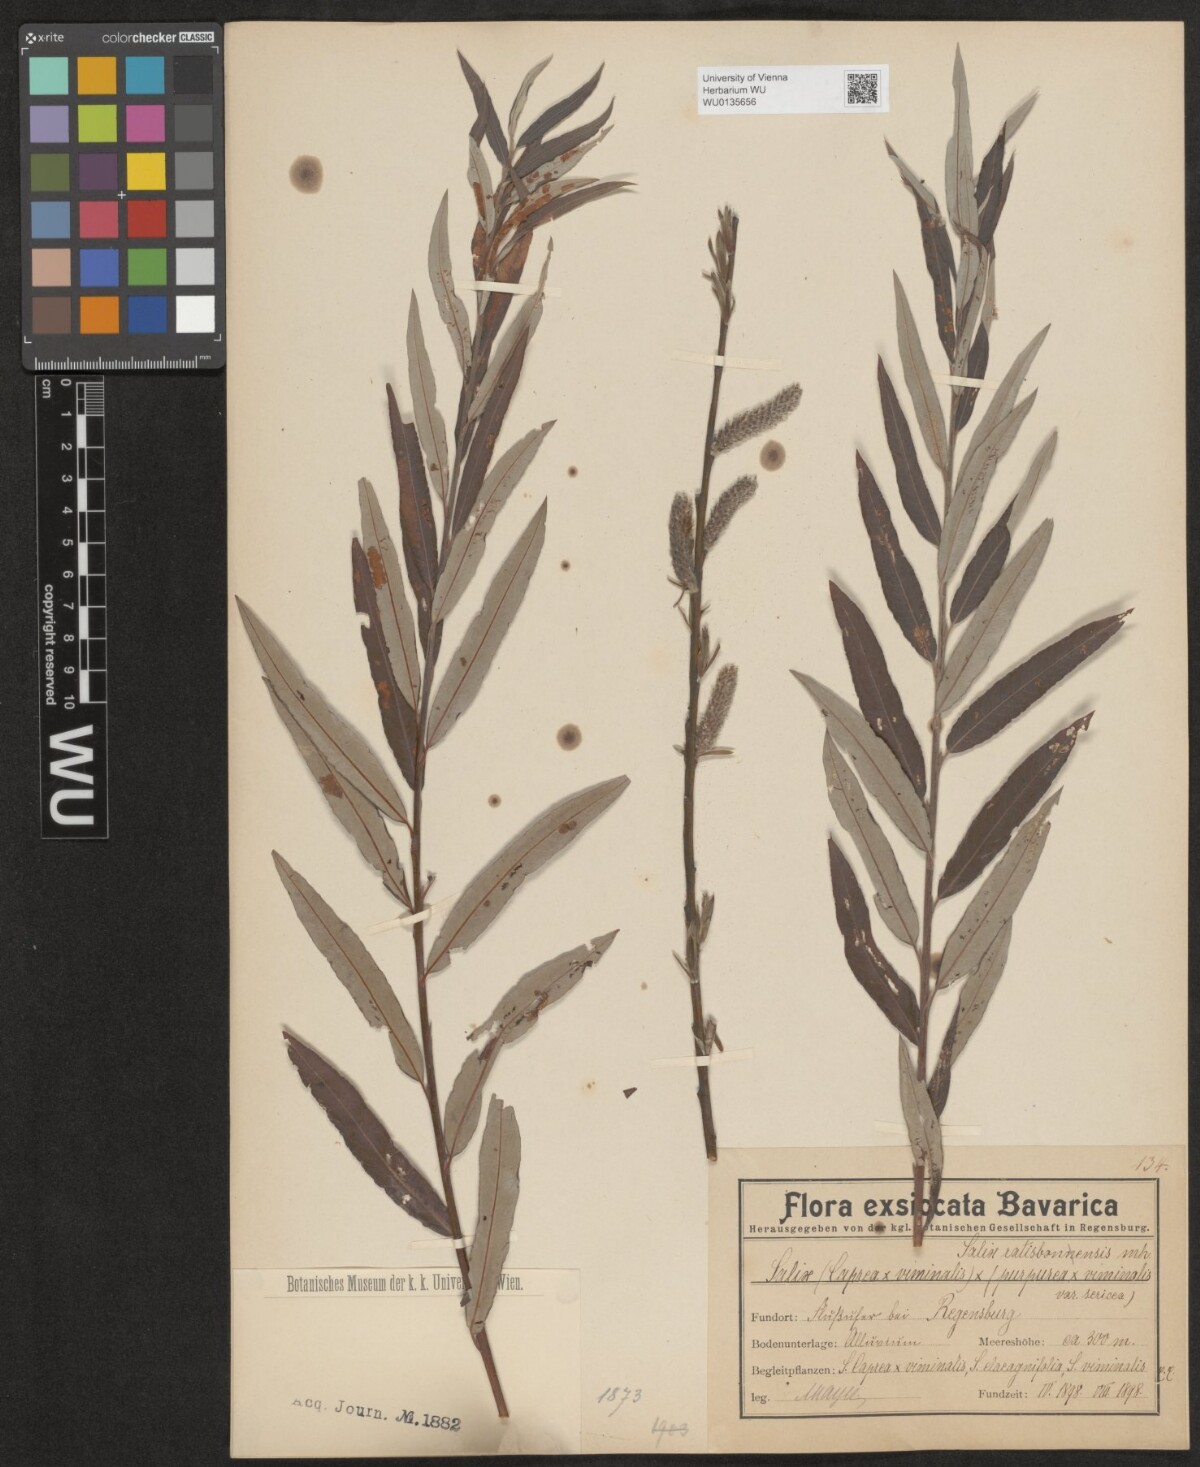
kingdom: Plantae
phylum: Tracheophyta
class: Magnoliopsida
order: Malpighiales
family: Salicaceae
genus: Salix
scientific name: Salix
